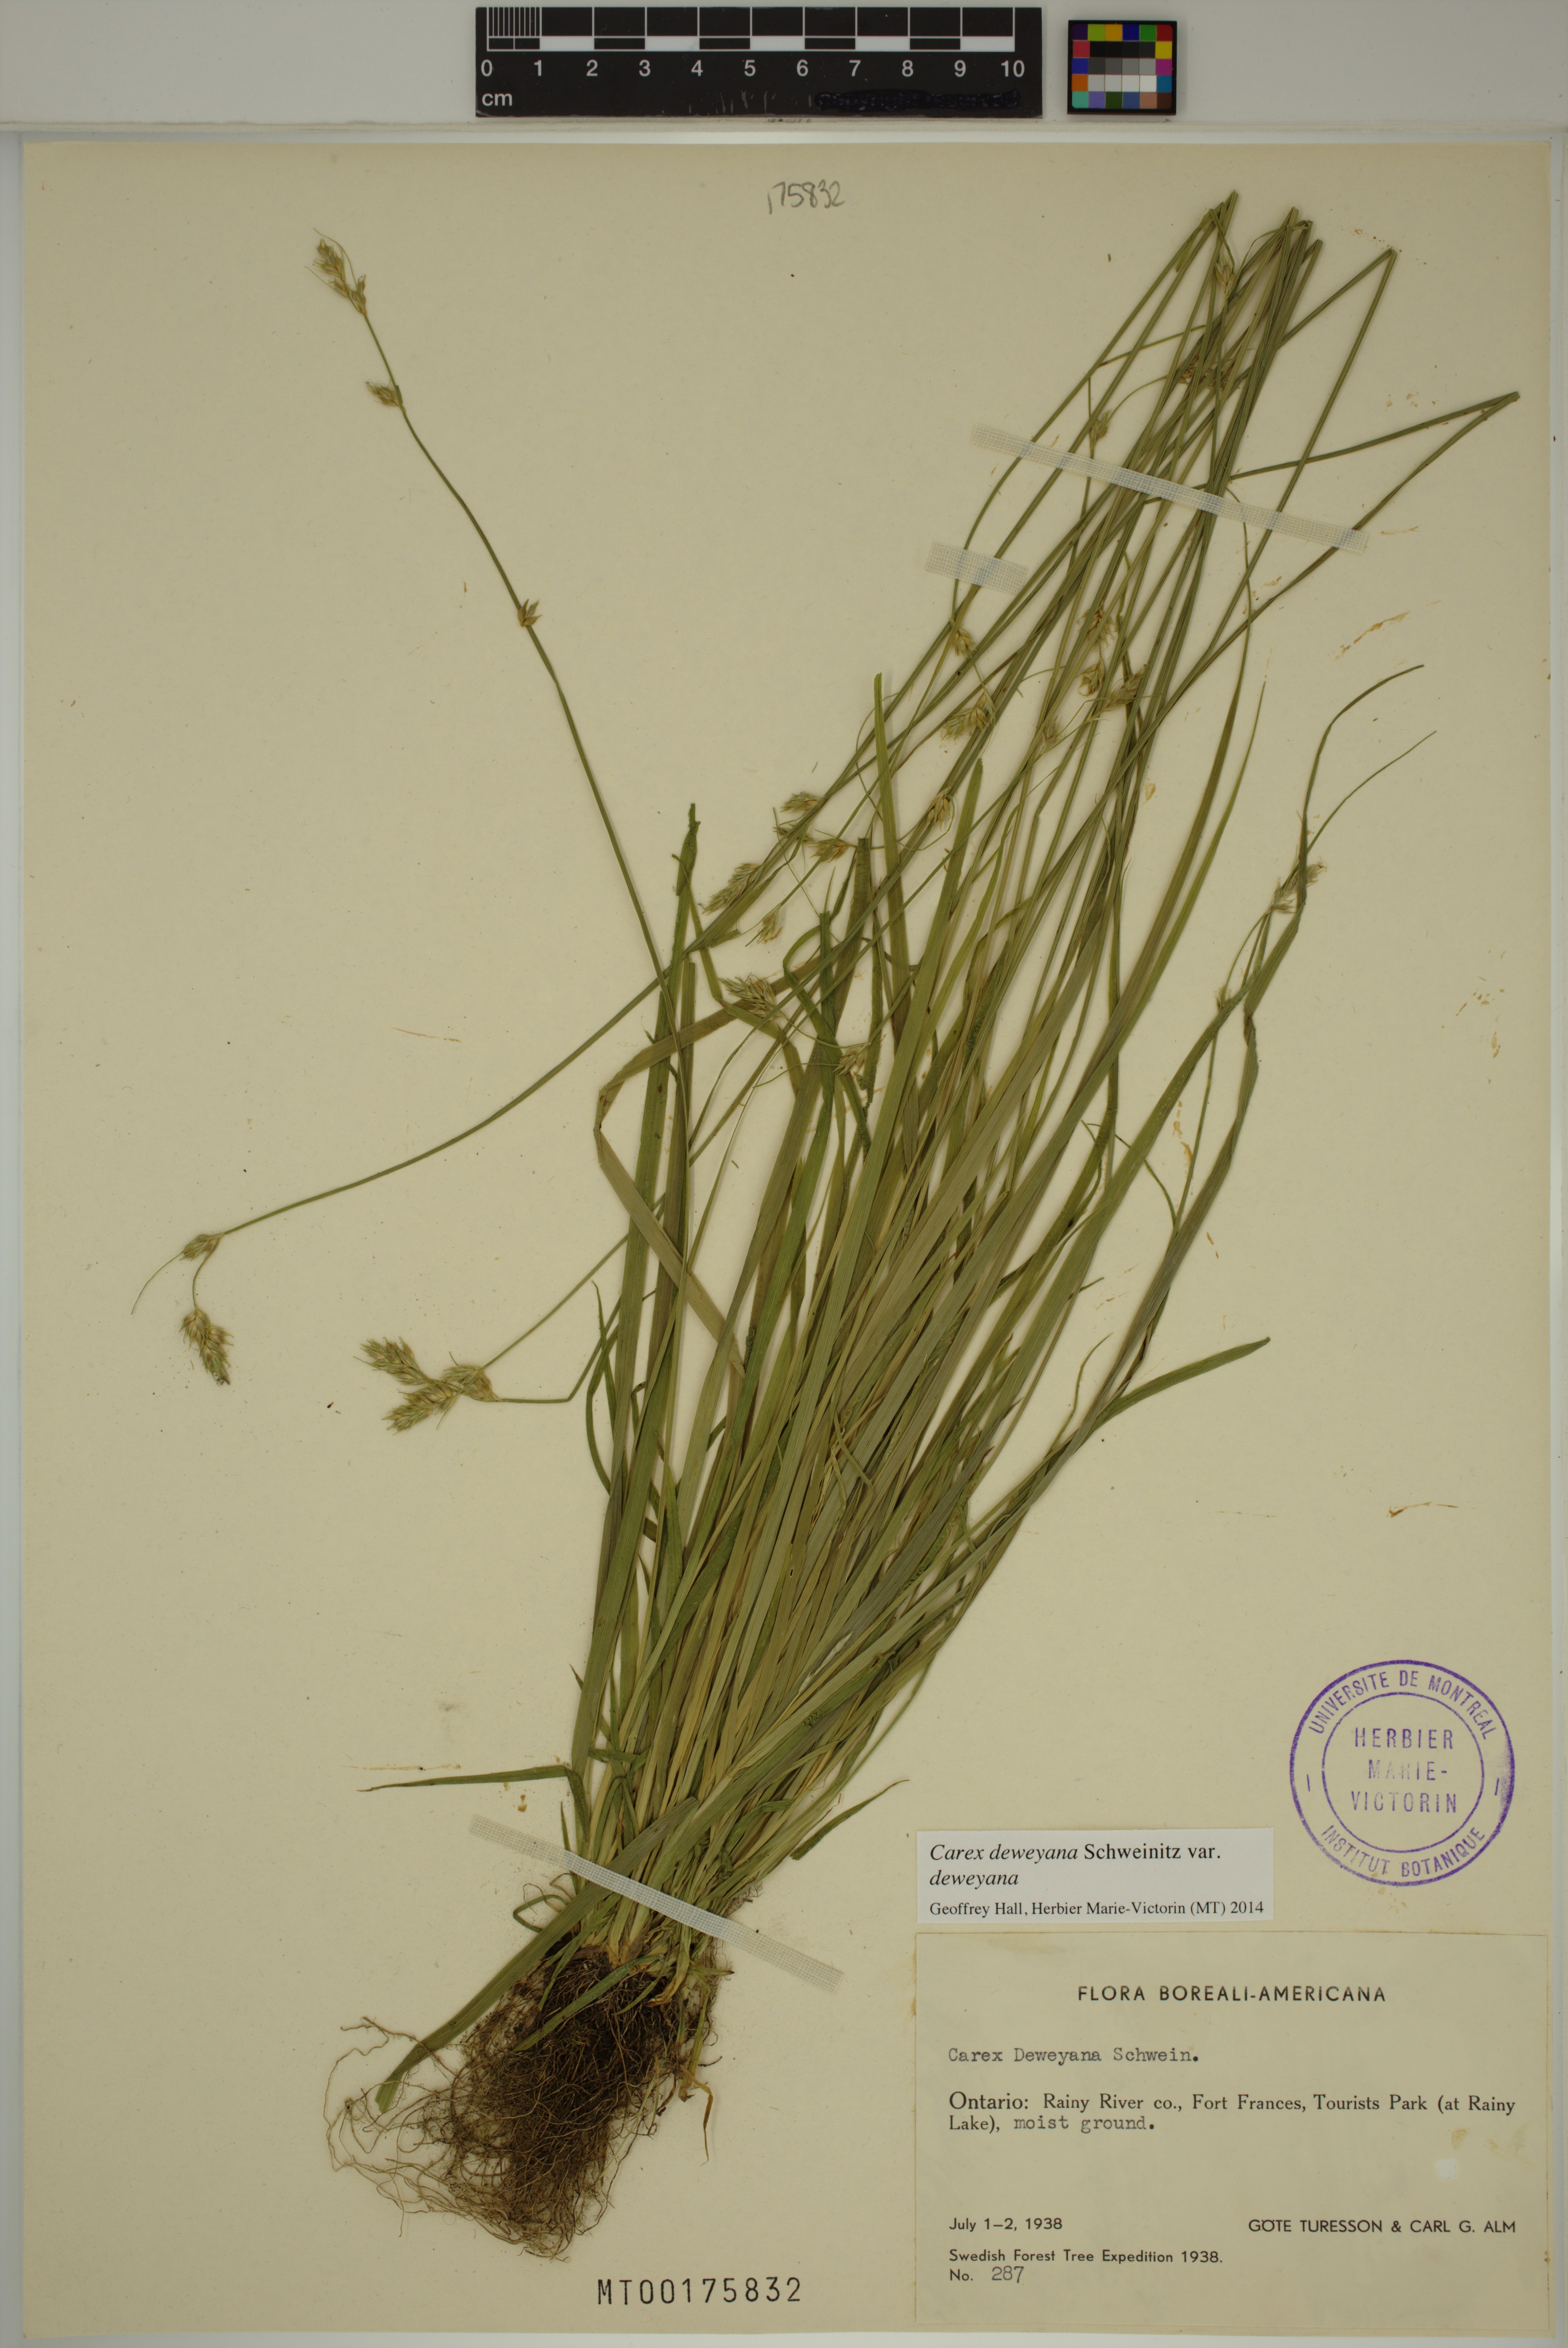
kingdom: Plantae
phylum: Tracheophyta
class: Liliopsida
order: Poales
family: Cyperaceae
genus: Carex
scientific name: Carex deweyana
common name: Dewey's sedge
